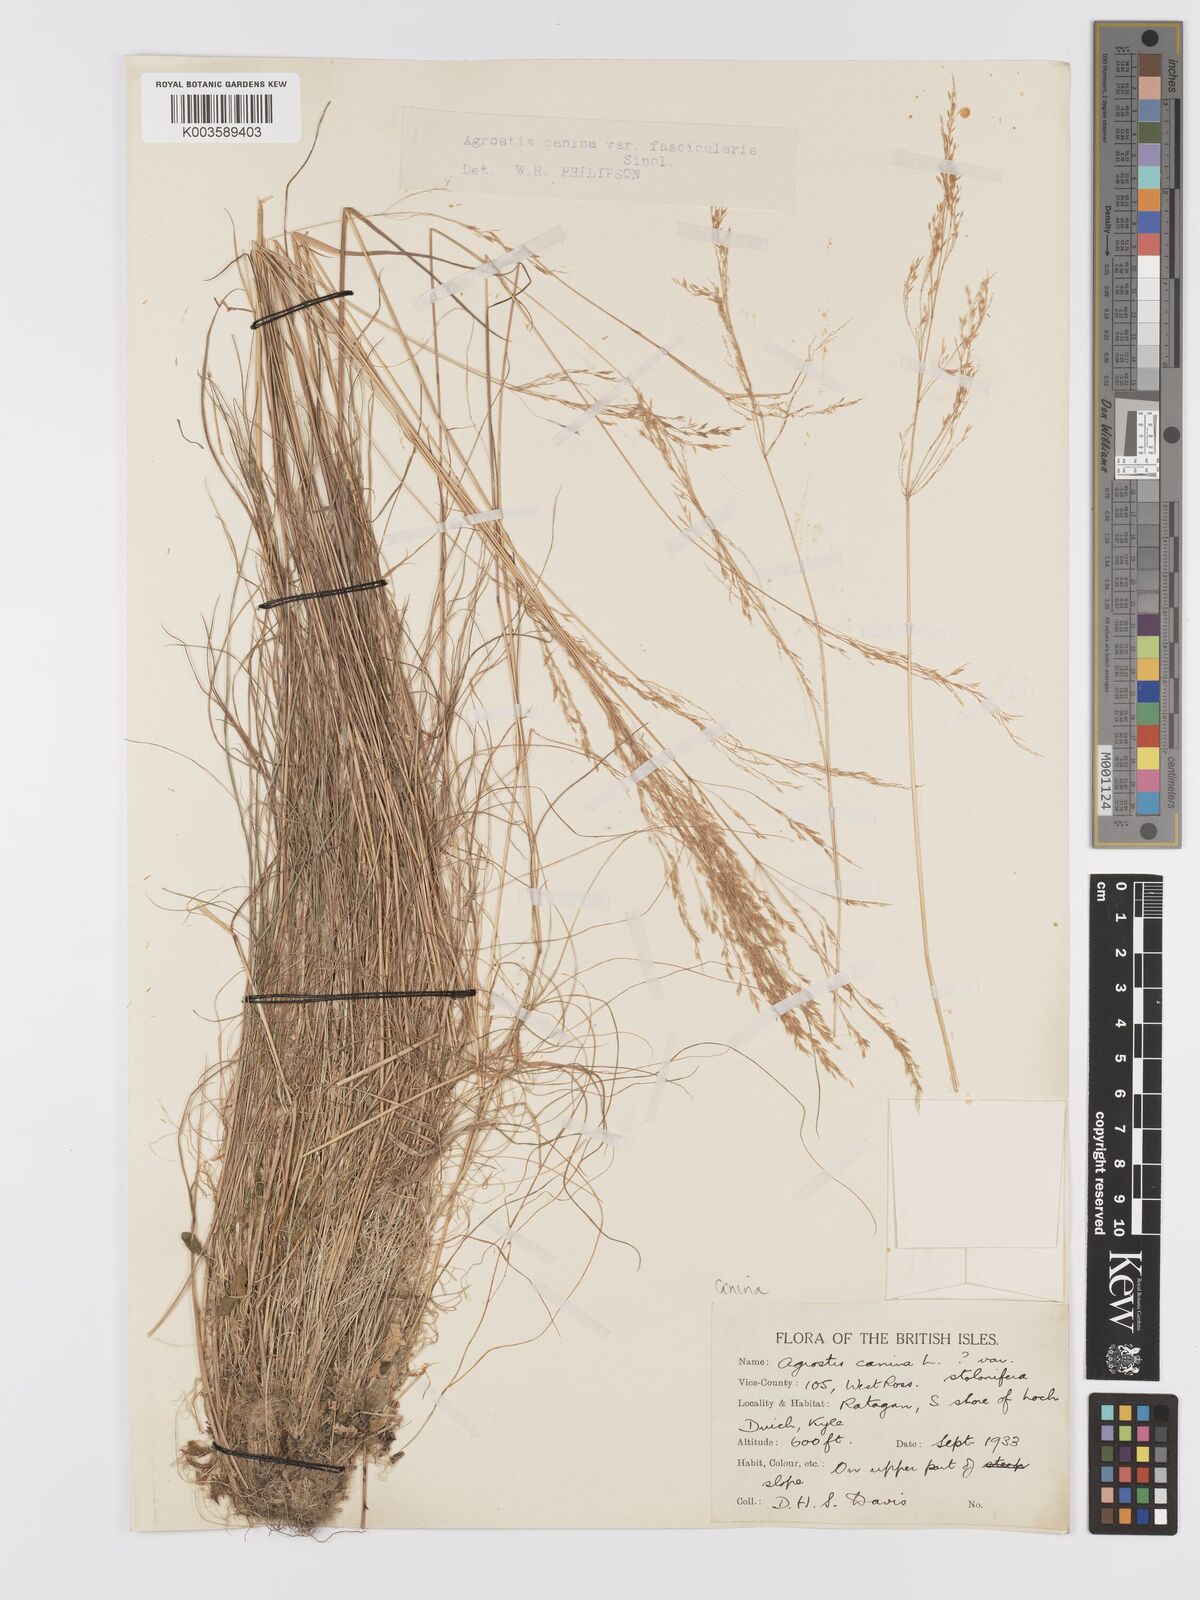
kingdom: Plantae
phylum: Tracheophyta
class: Liliopsida
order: Poales
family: Poaceae
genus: Agrostis
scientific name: Agrostis canina
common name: Velvet bent
